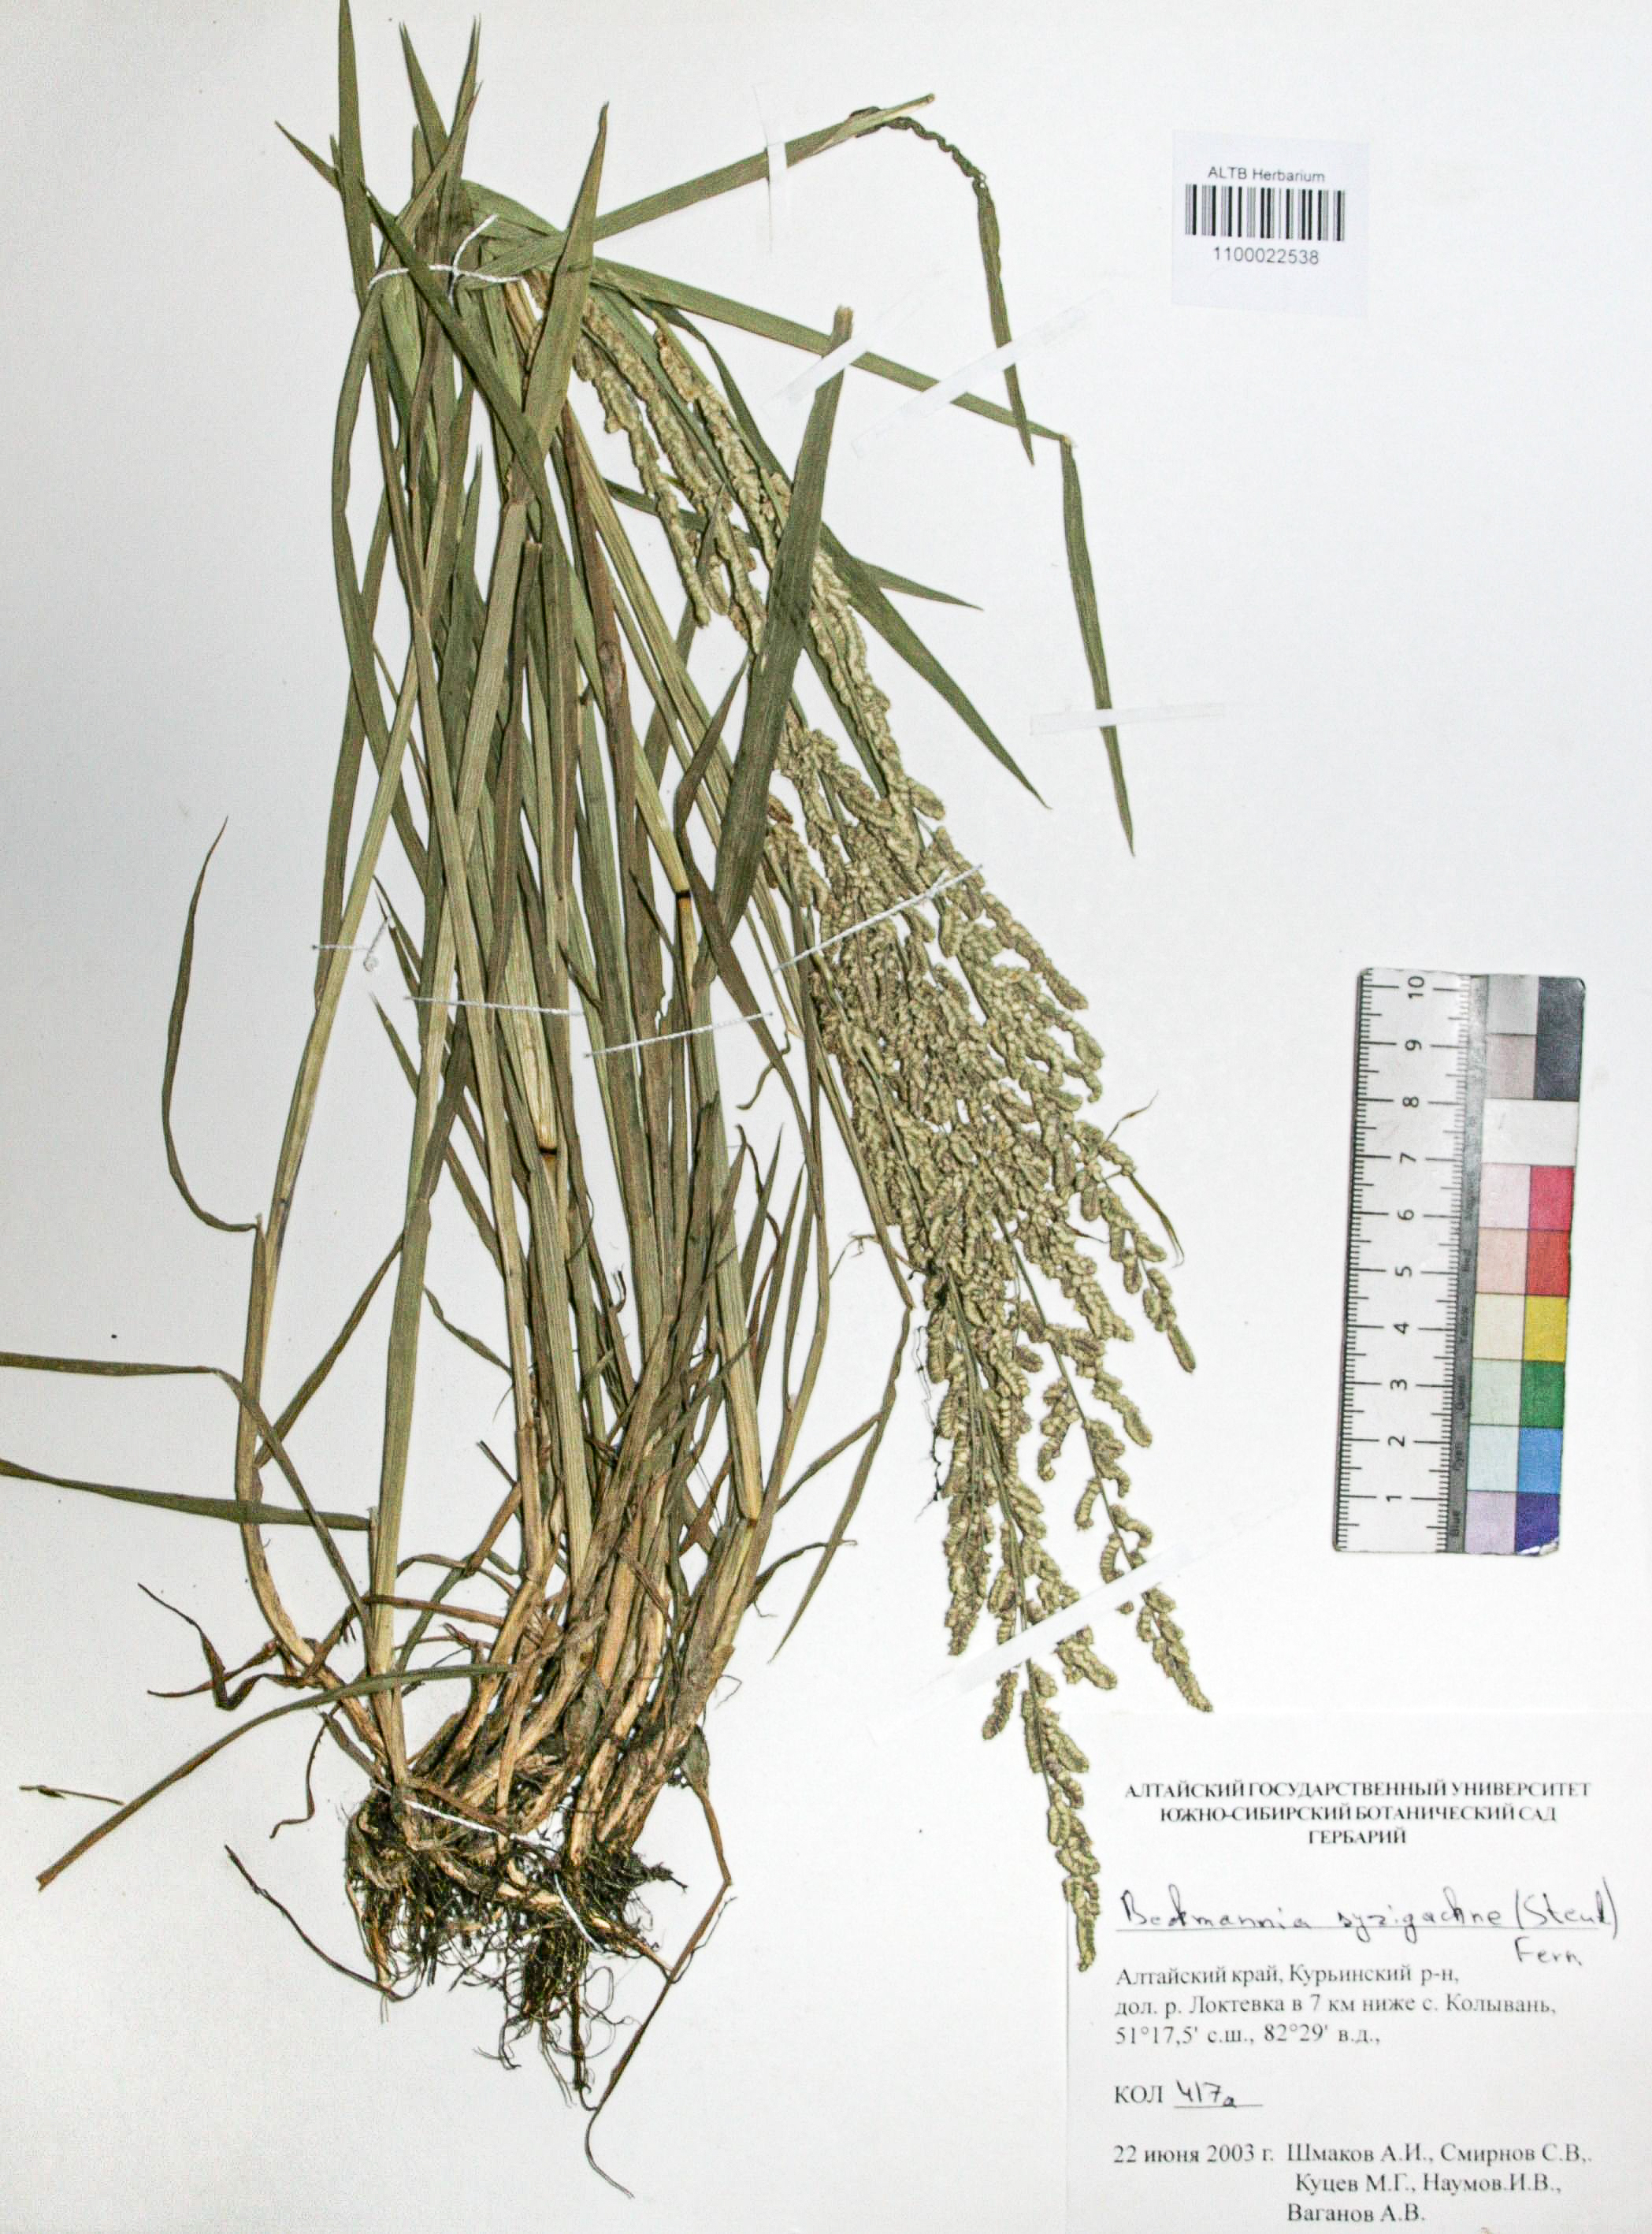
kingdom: Plantae
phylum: Tracheophyta
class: Liliopsida
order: Poales
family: Poaceae
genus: Beckmannia
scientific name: Beckmannia syzigachne
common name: American slough-grass
